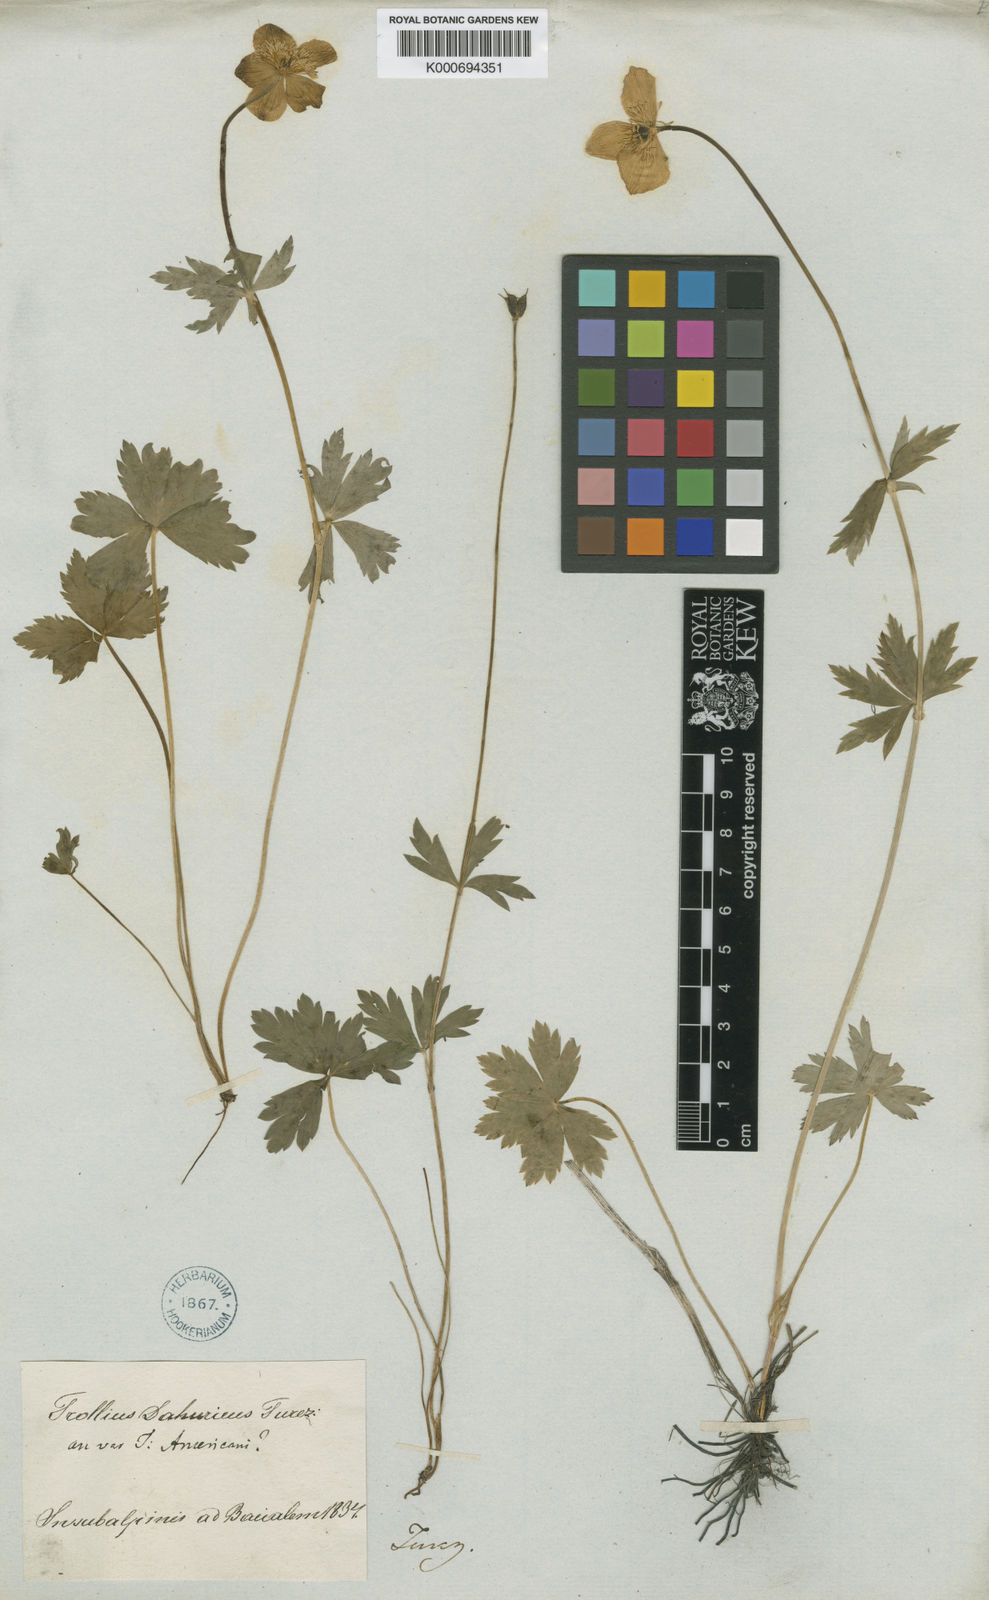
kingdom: Plantae
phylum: Tracheophyta
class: Magnoliopsida
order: Ranunculales
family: Ranunculaceae
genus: Trollius
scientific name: Trollius asiaticus
